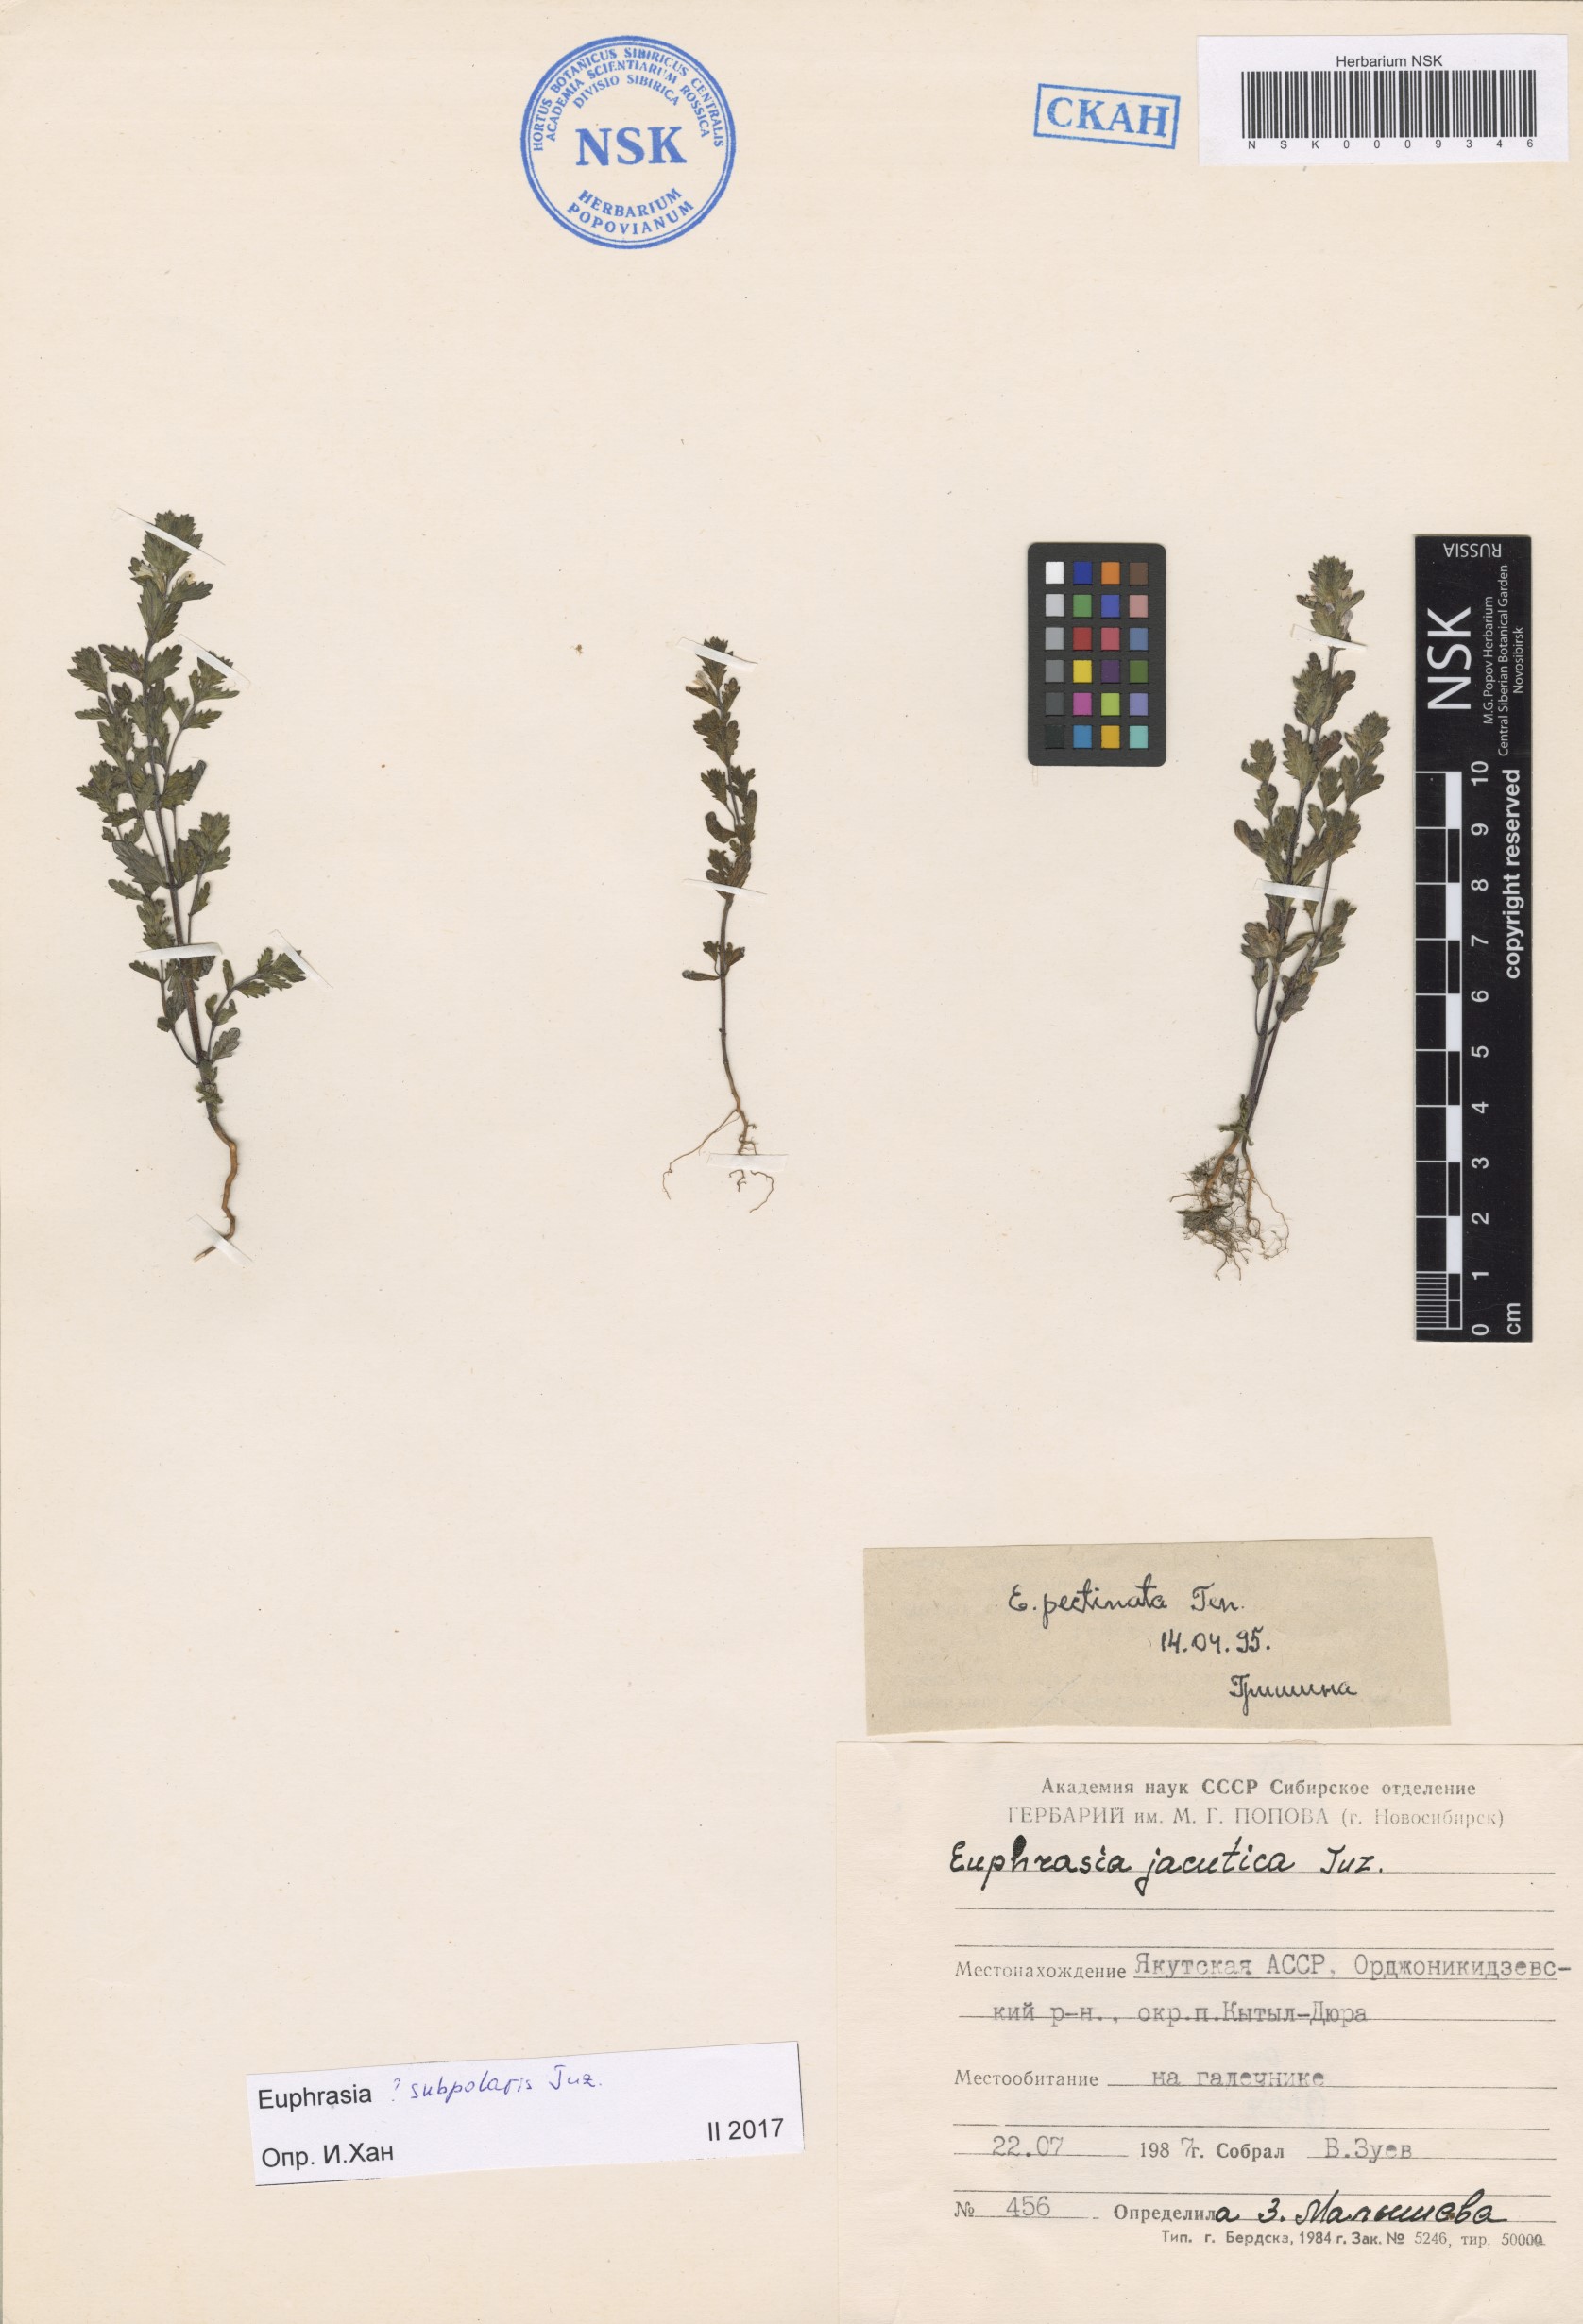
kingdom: Plantae
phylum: Tracheophyta
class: Magnoliopsida
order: Lamiales
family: Orobanchaceae
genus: Euphrasia
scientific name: Euphrasia hyperborea
